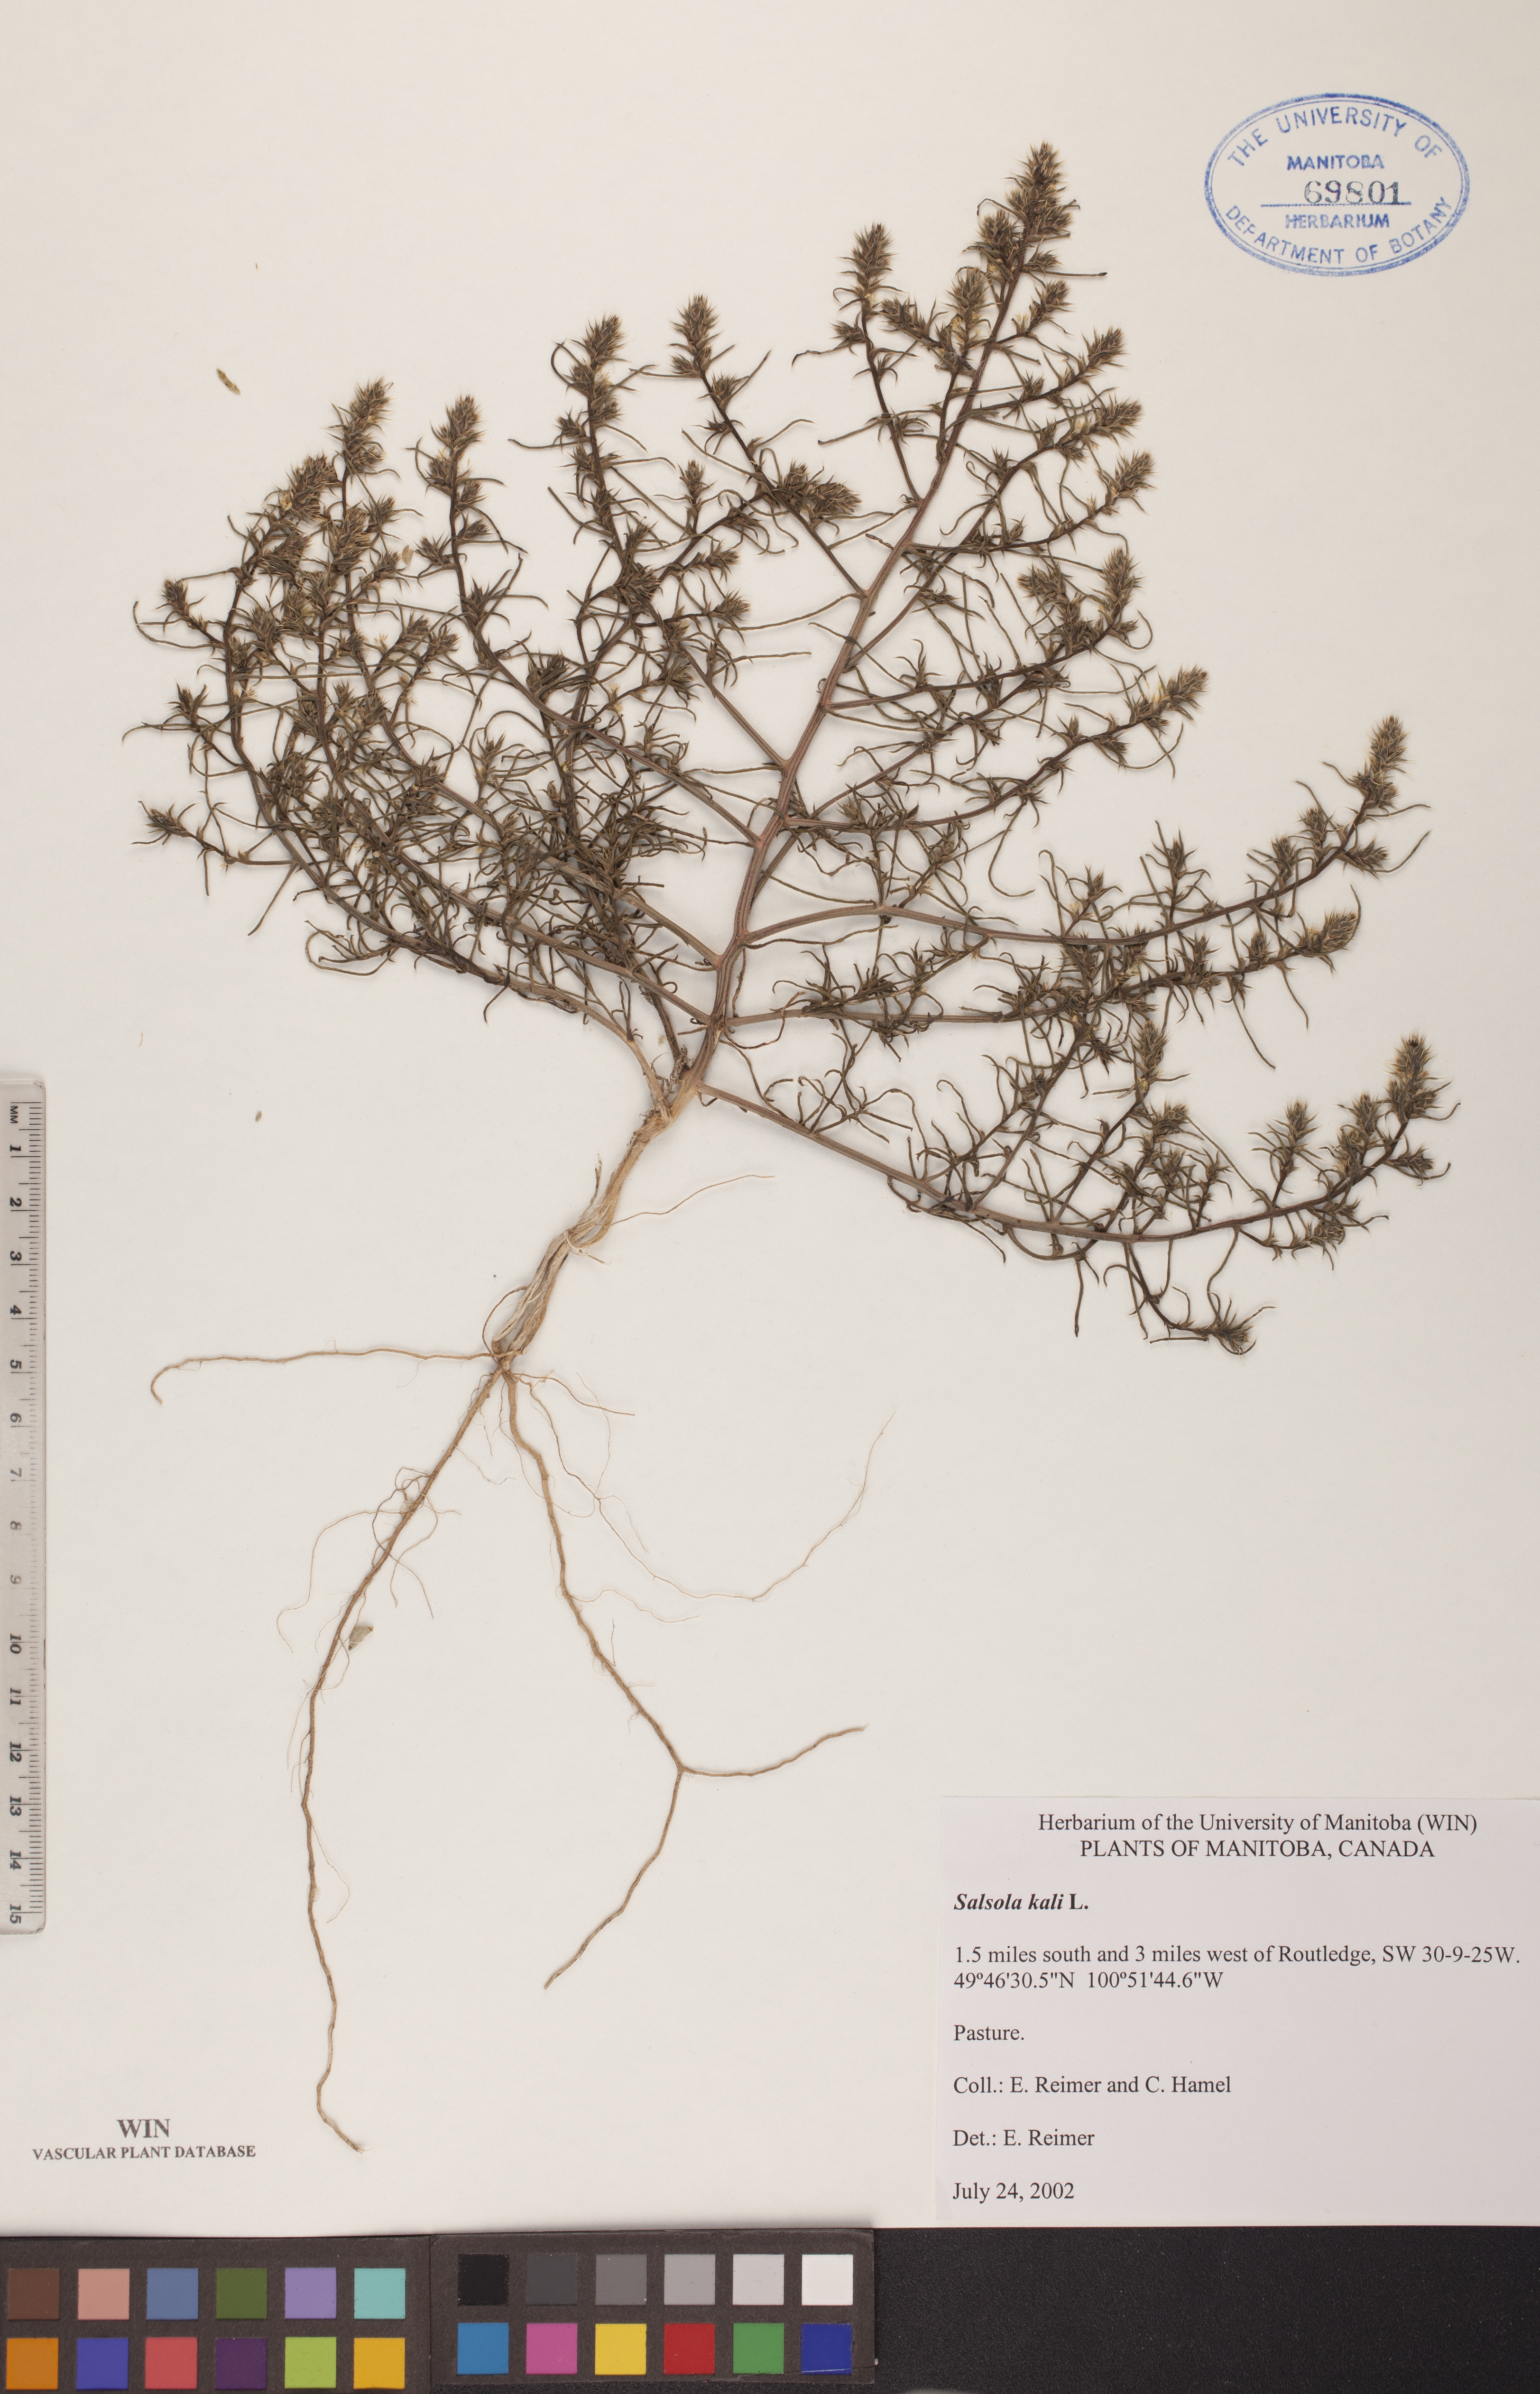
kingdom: Plantae
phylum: Tracheophyta
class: Magnoliopsida
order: Caryophyllales
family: Amaranthaceae
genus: Salsola
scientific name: Salsola kali
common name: Saltwort
